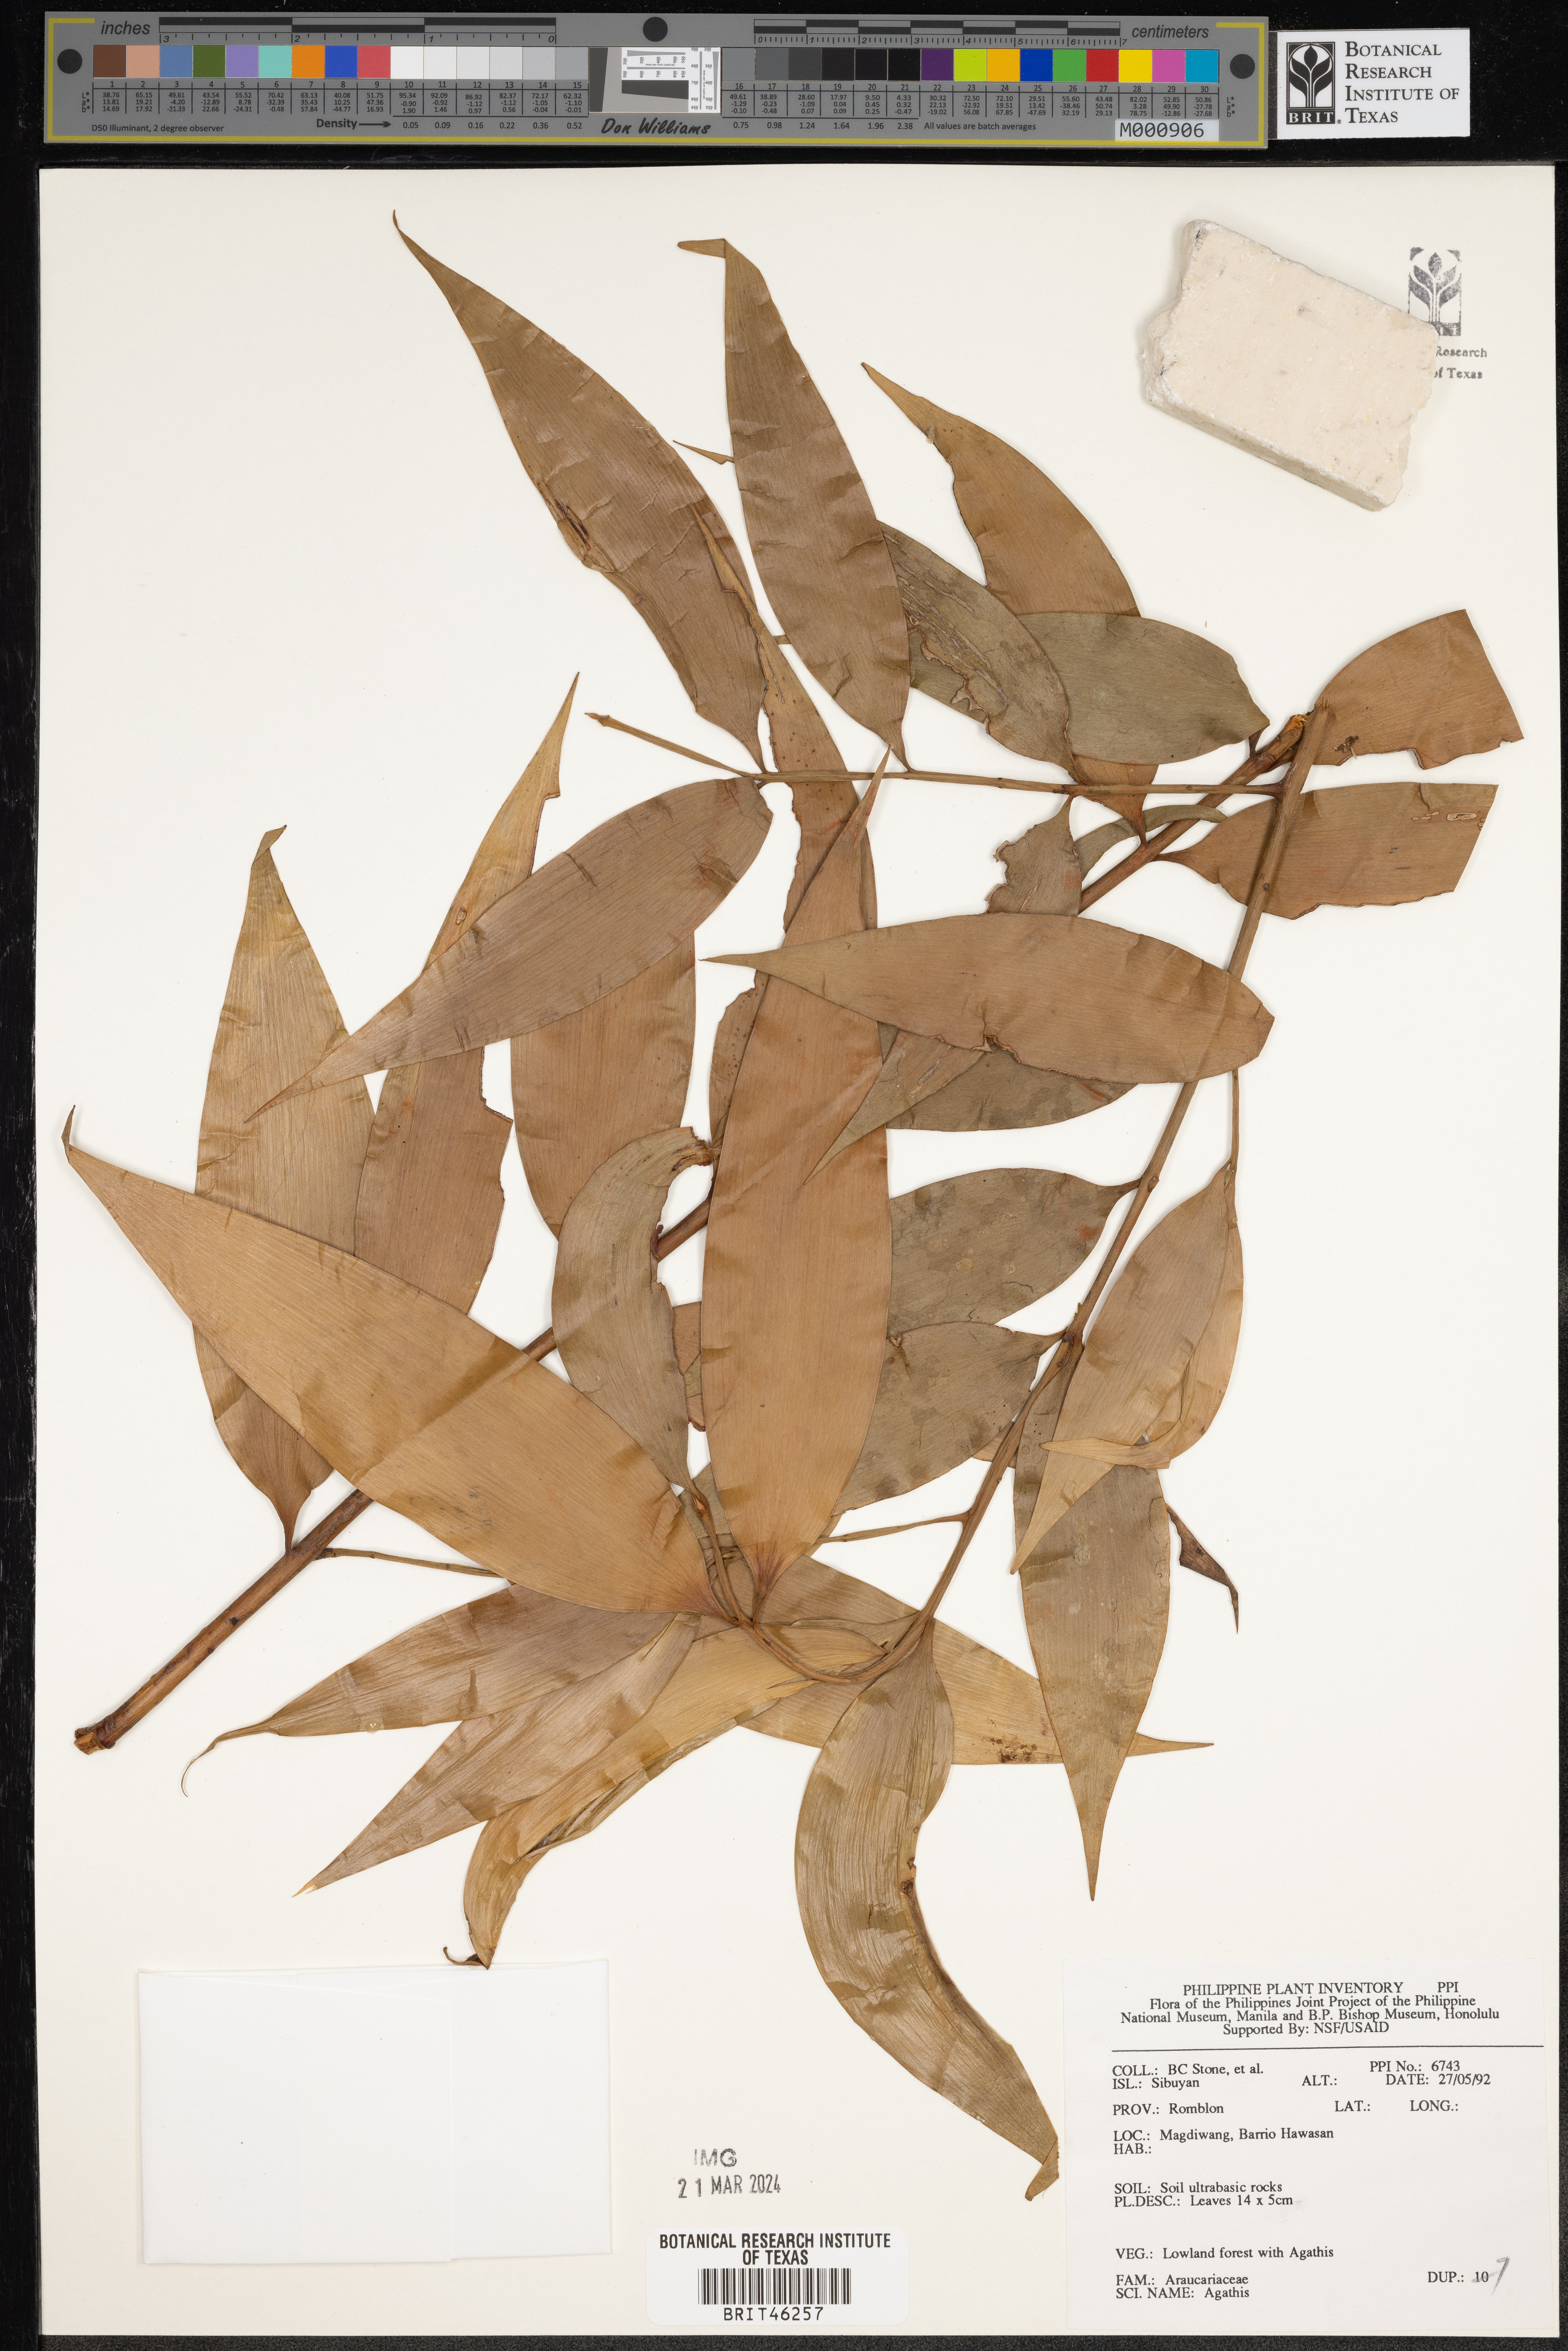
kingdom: Plantae
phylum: Tracheophyta
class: Pinopsida
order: Pinales
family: Araucariaceae
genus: Agathis
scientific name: Agathis
